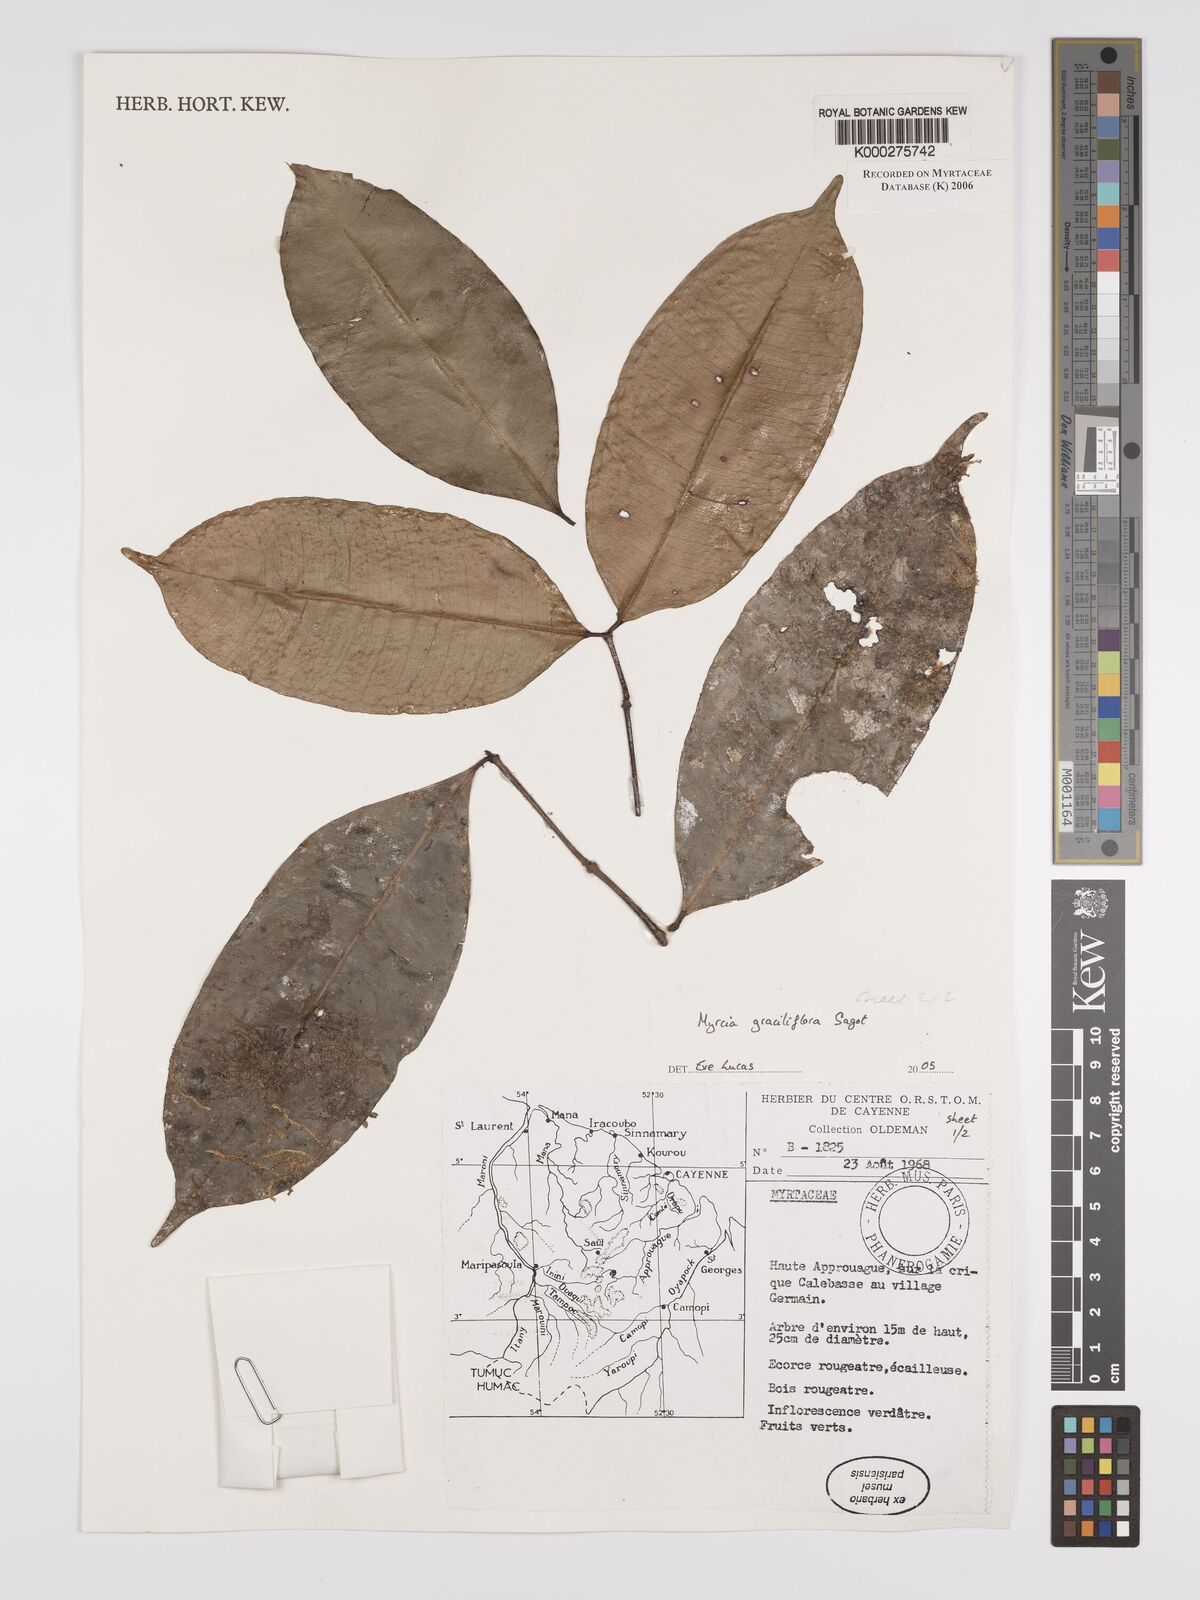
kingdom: Plantae
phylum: Tracheophyta
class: Magnoliopsida
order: Myrtales
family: Myrtaceae
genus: Myrcia
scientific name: Myrcia graciliflora
